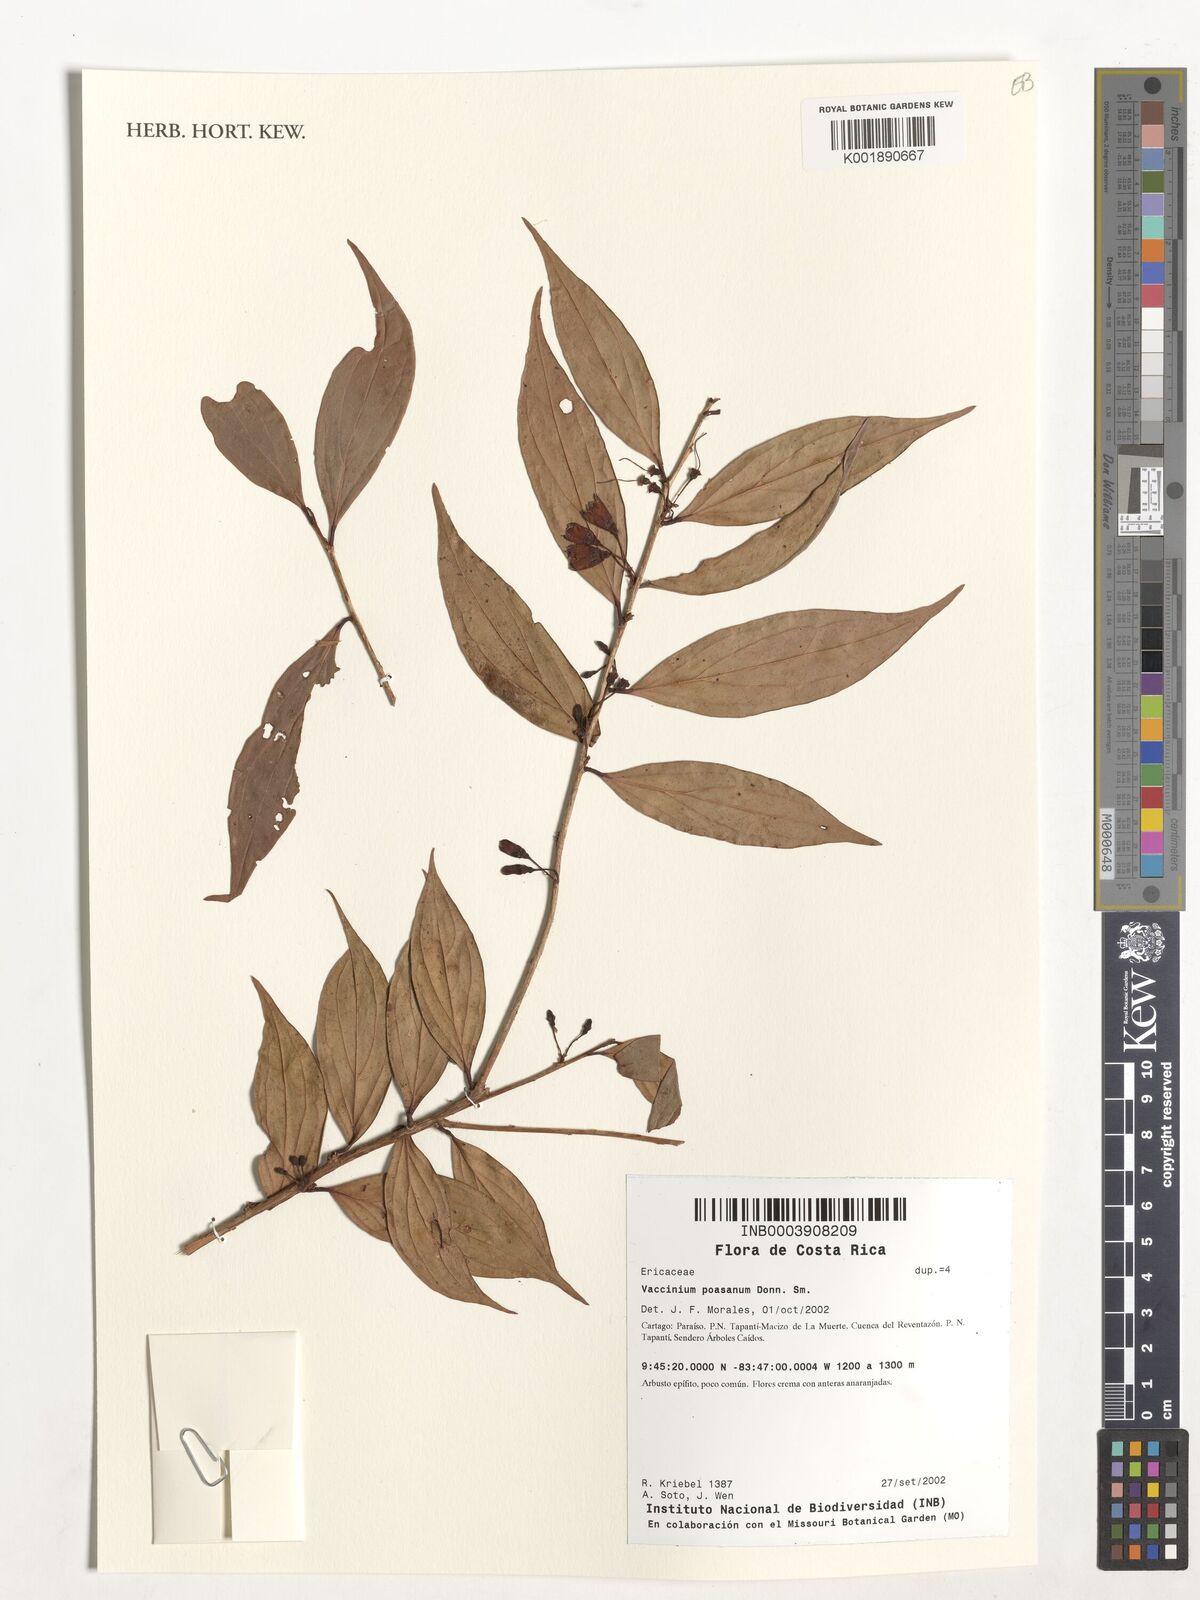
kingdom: Plantae
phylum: Tracheophyta
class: Magnoliopsida
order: Ericales
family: Ericaceae
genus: Symphysia
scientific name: Symphysia poasana
